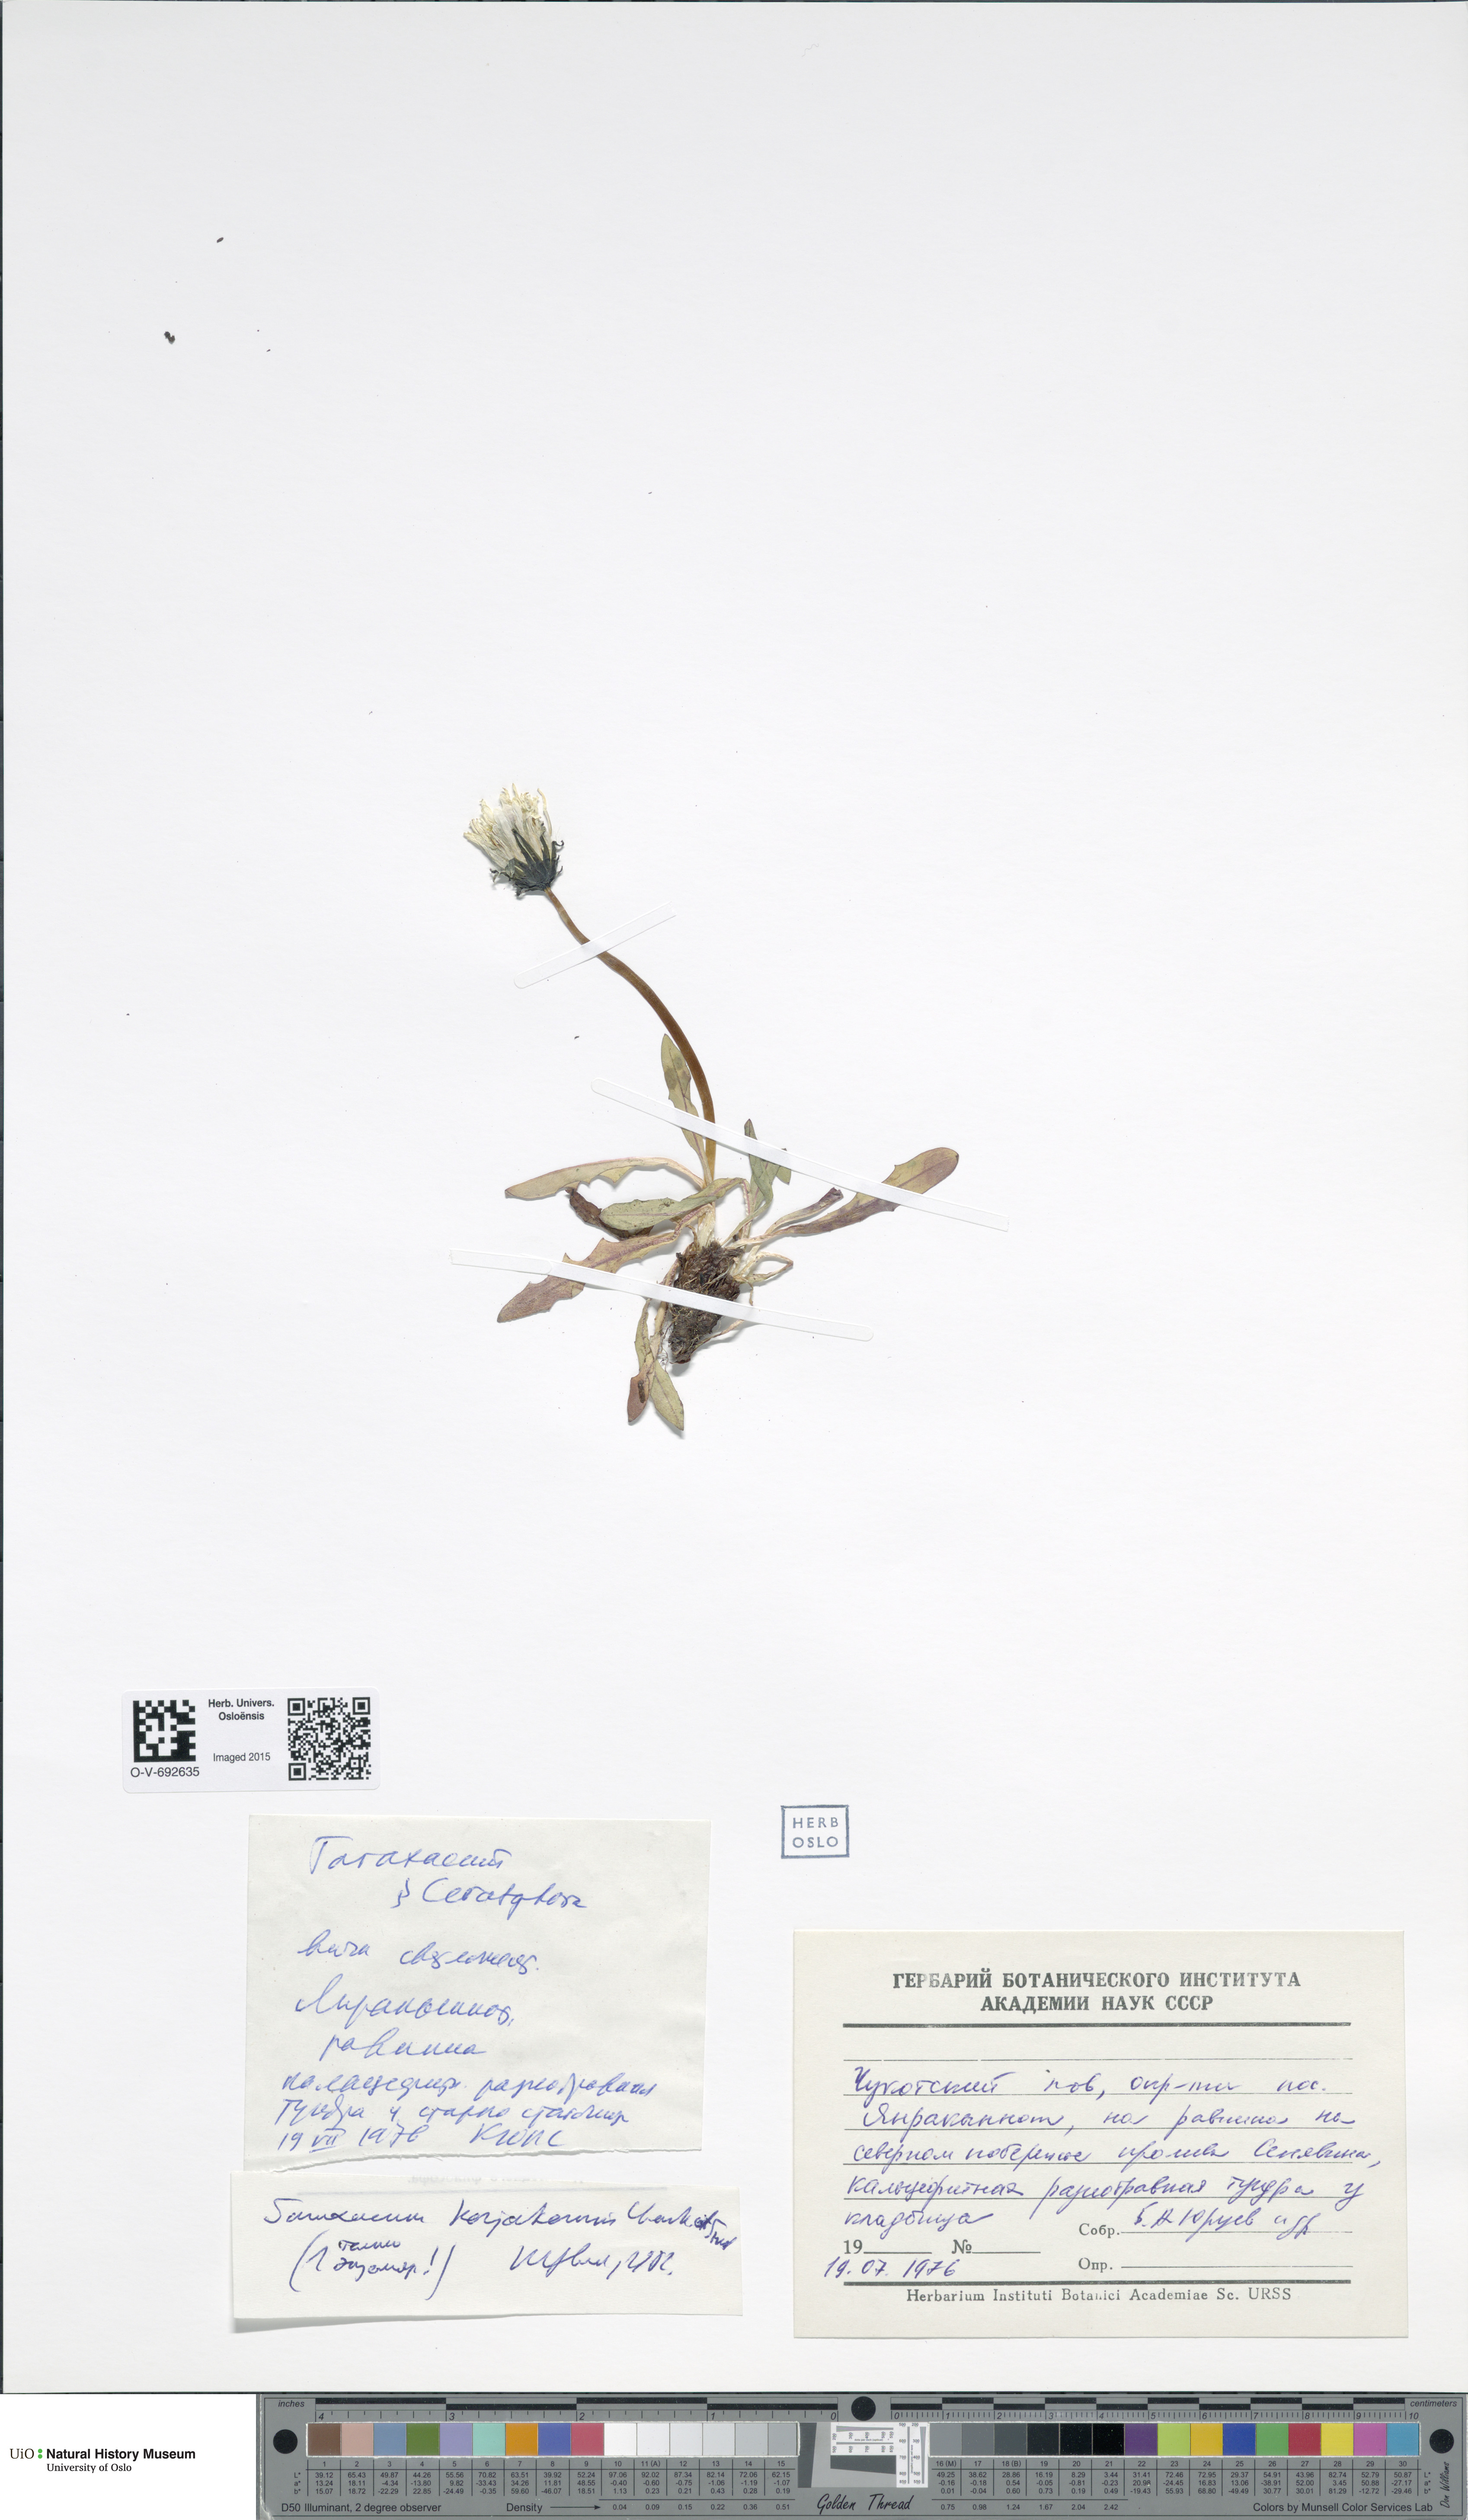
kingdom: Plantae
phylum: Tracheophyta
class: Magnoliopsida
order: Asterales
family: Asteraceae
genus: Taraxacum
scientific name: Taraxacum borealia
